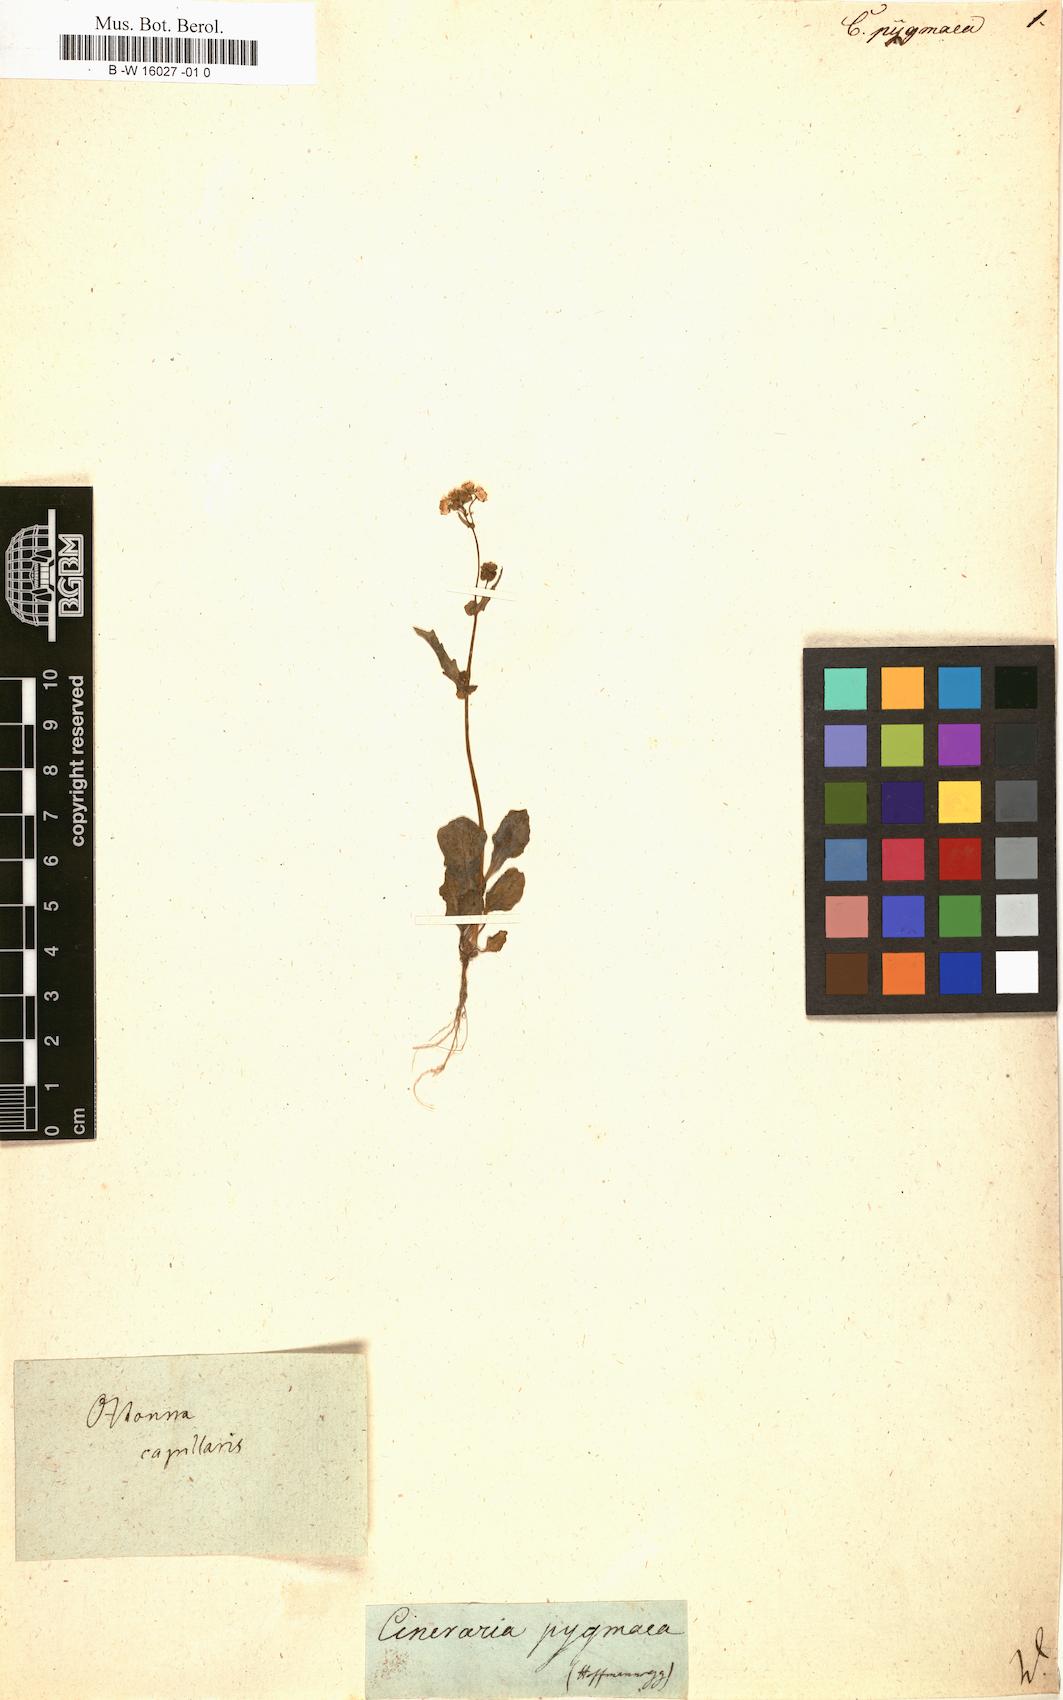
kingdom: Plantae
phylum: Tracheophyta
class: Magnoliopsida
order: Asterales
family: Asteraceae
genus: Cineraria
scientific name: Cineraria
